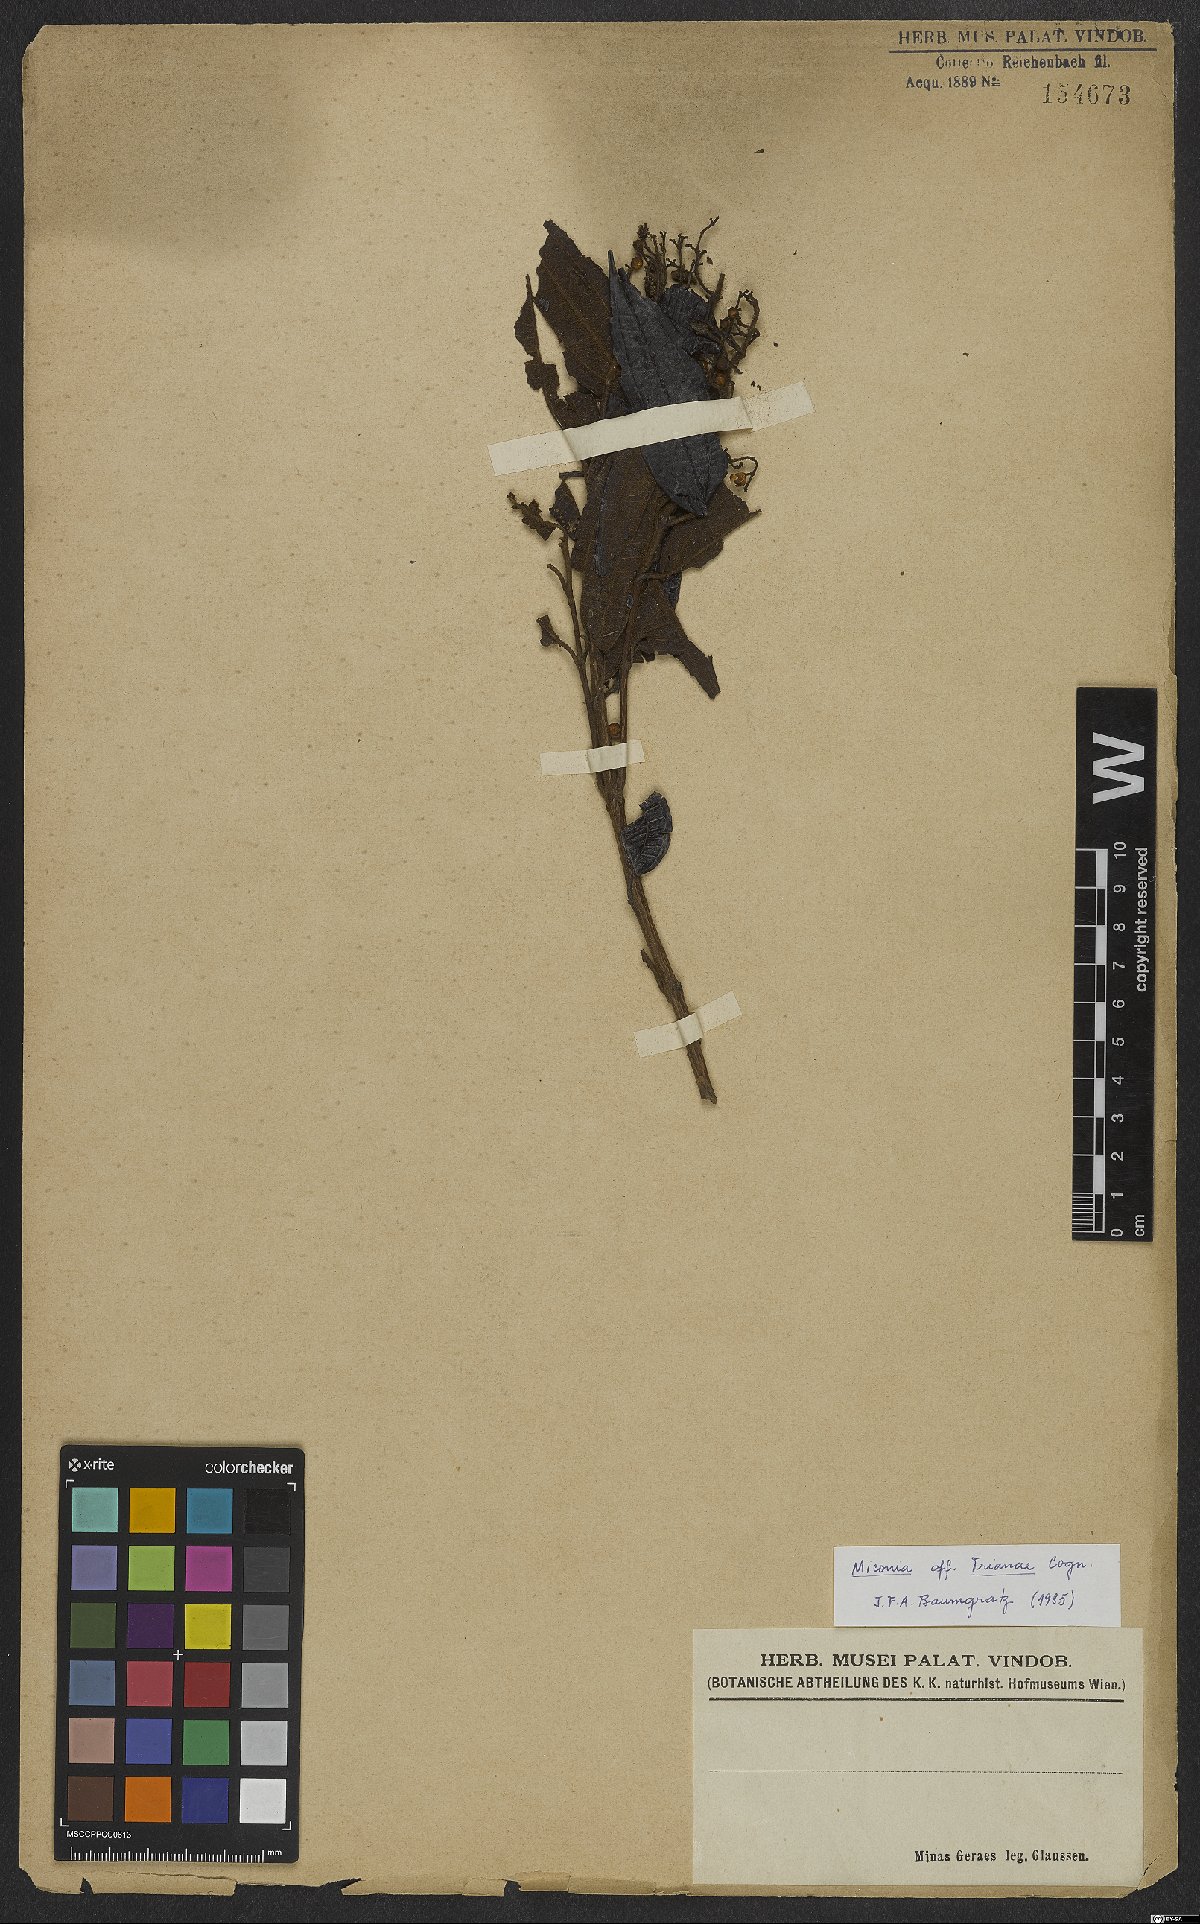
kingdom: Plantae
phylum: Tracheophyta
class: Magnoliopsida
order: Myrtales
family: Melastomataceae
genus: Miconia
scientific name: Miconia trianae
